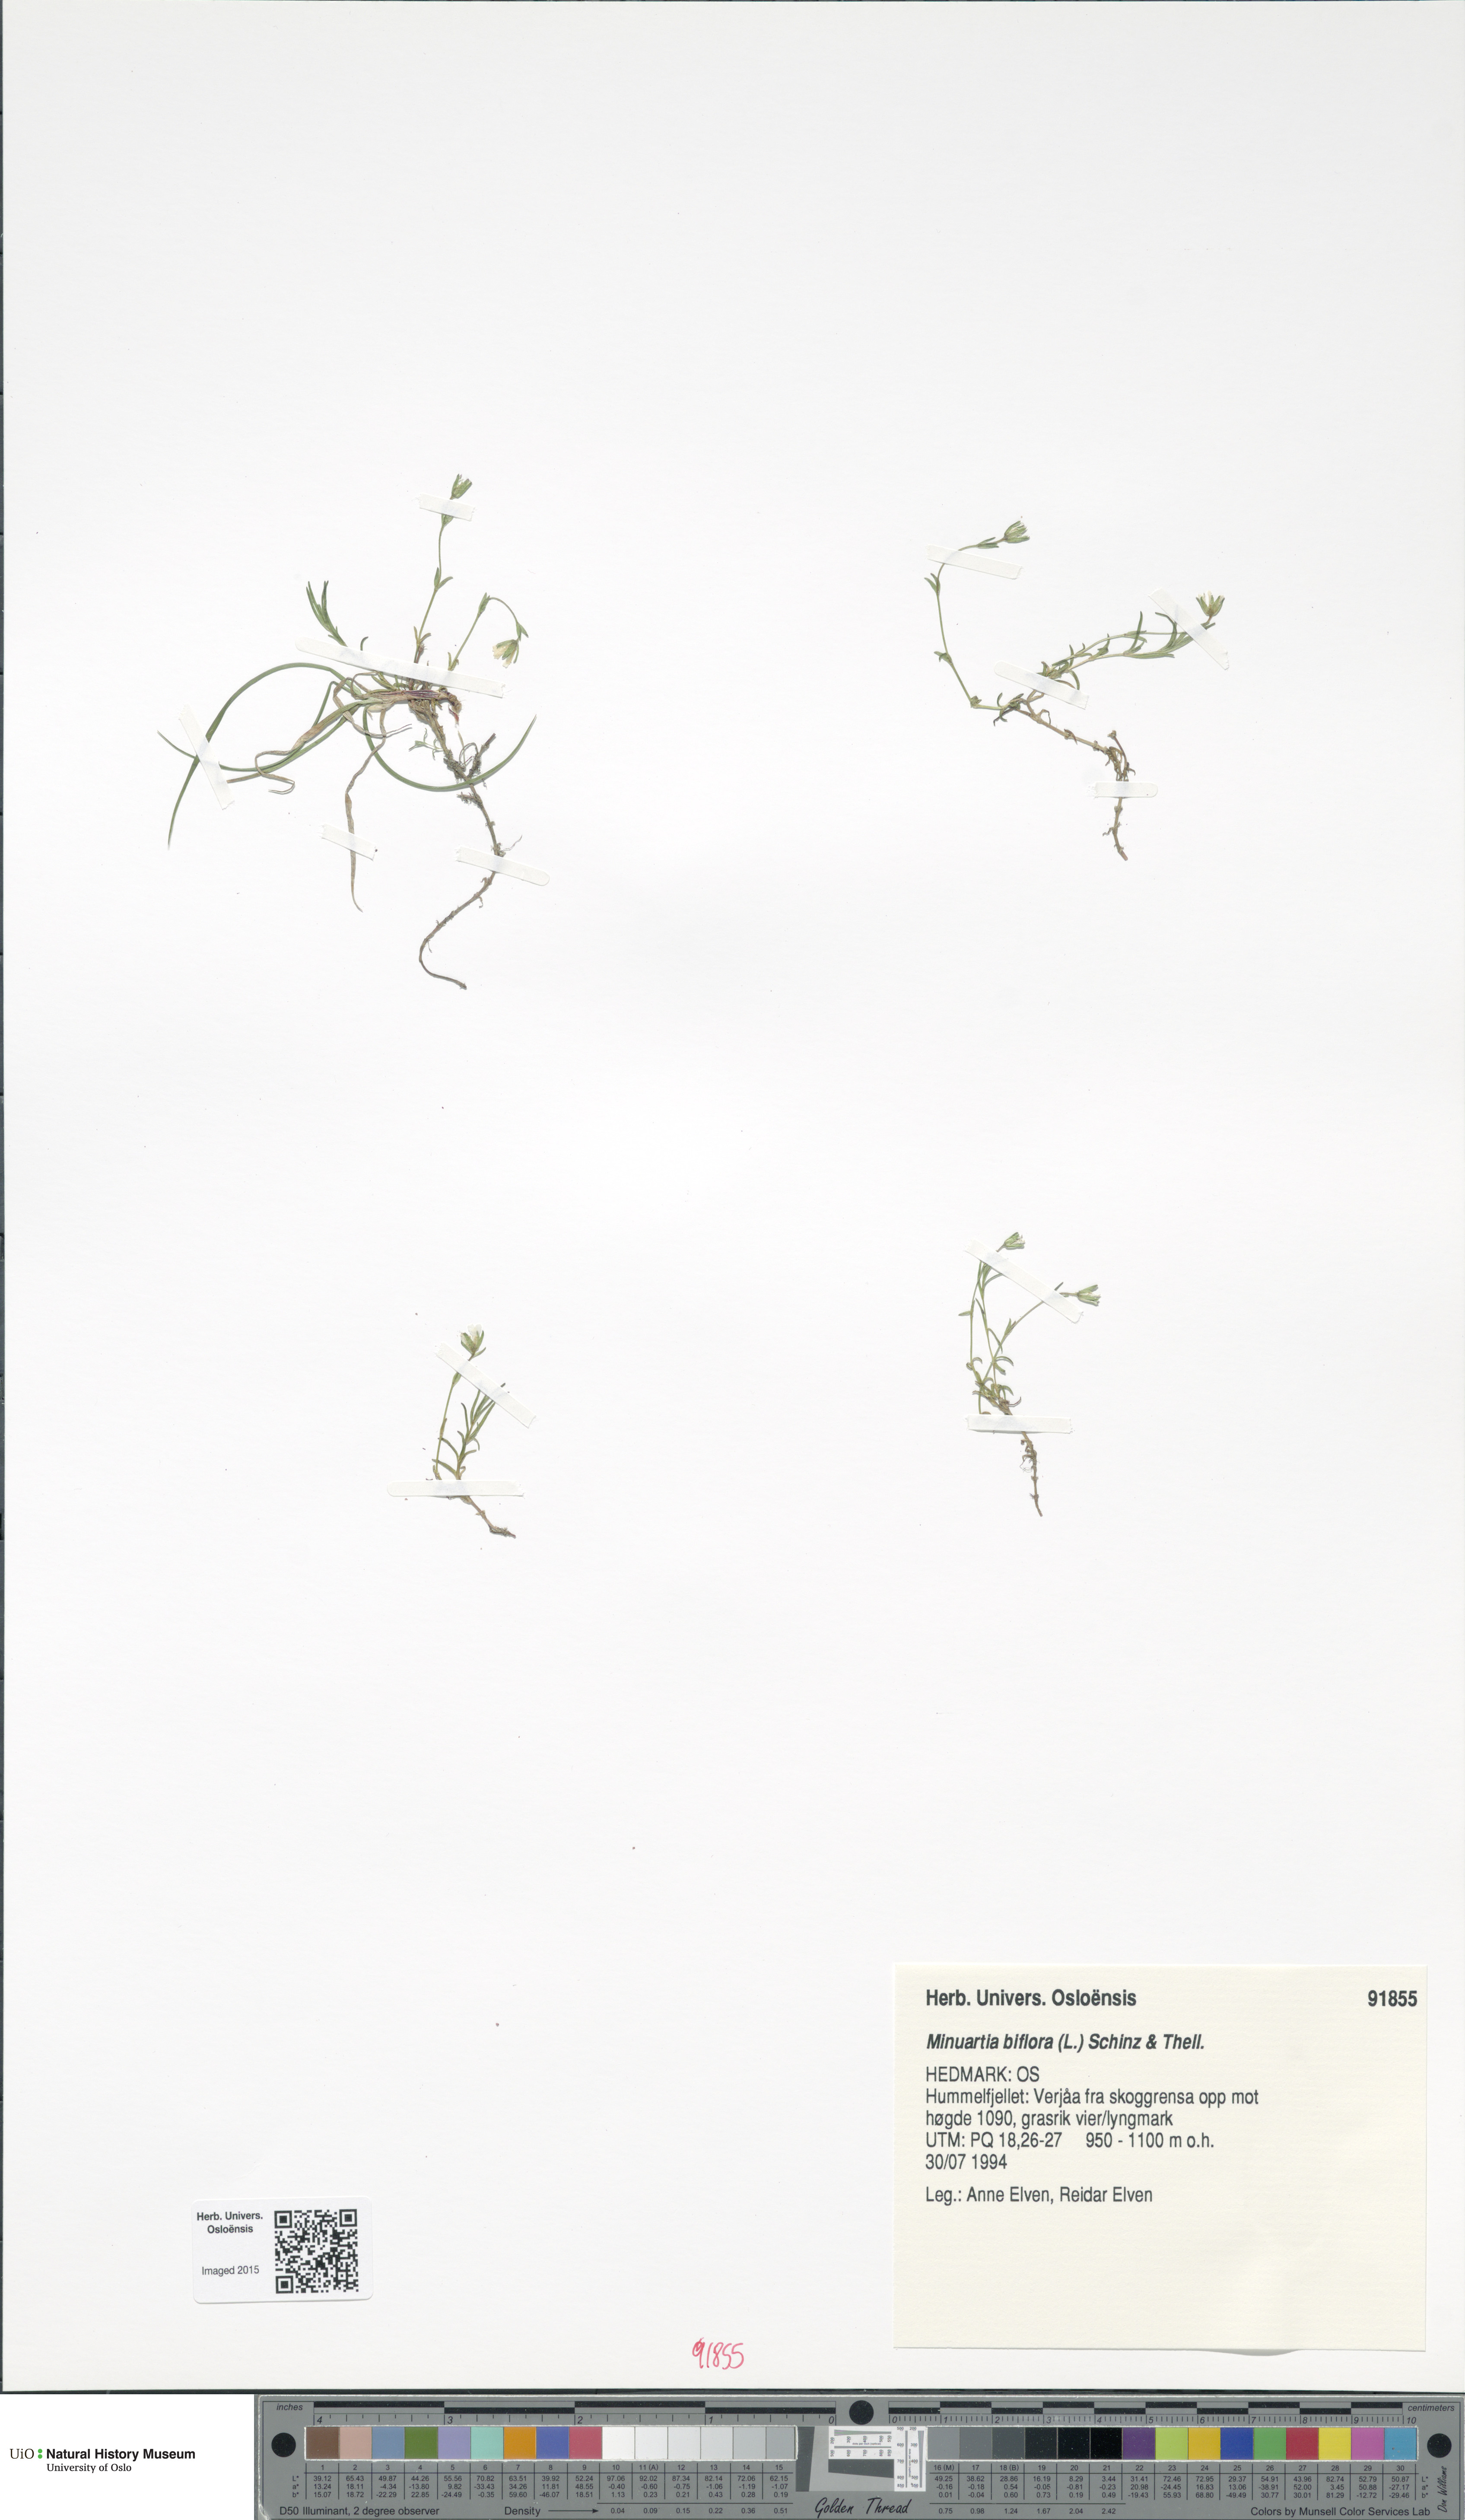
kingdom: Plantae
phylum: Tracheophyta
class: Magnoliopsida
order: Caryophyllales
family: Caryophyllaceae
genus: Cherleria
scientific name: Cherleria biflora
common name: Mountain sandwort
